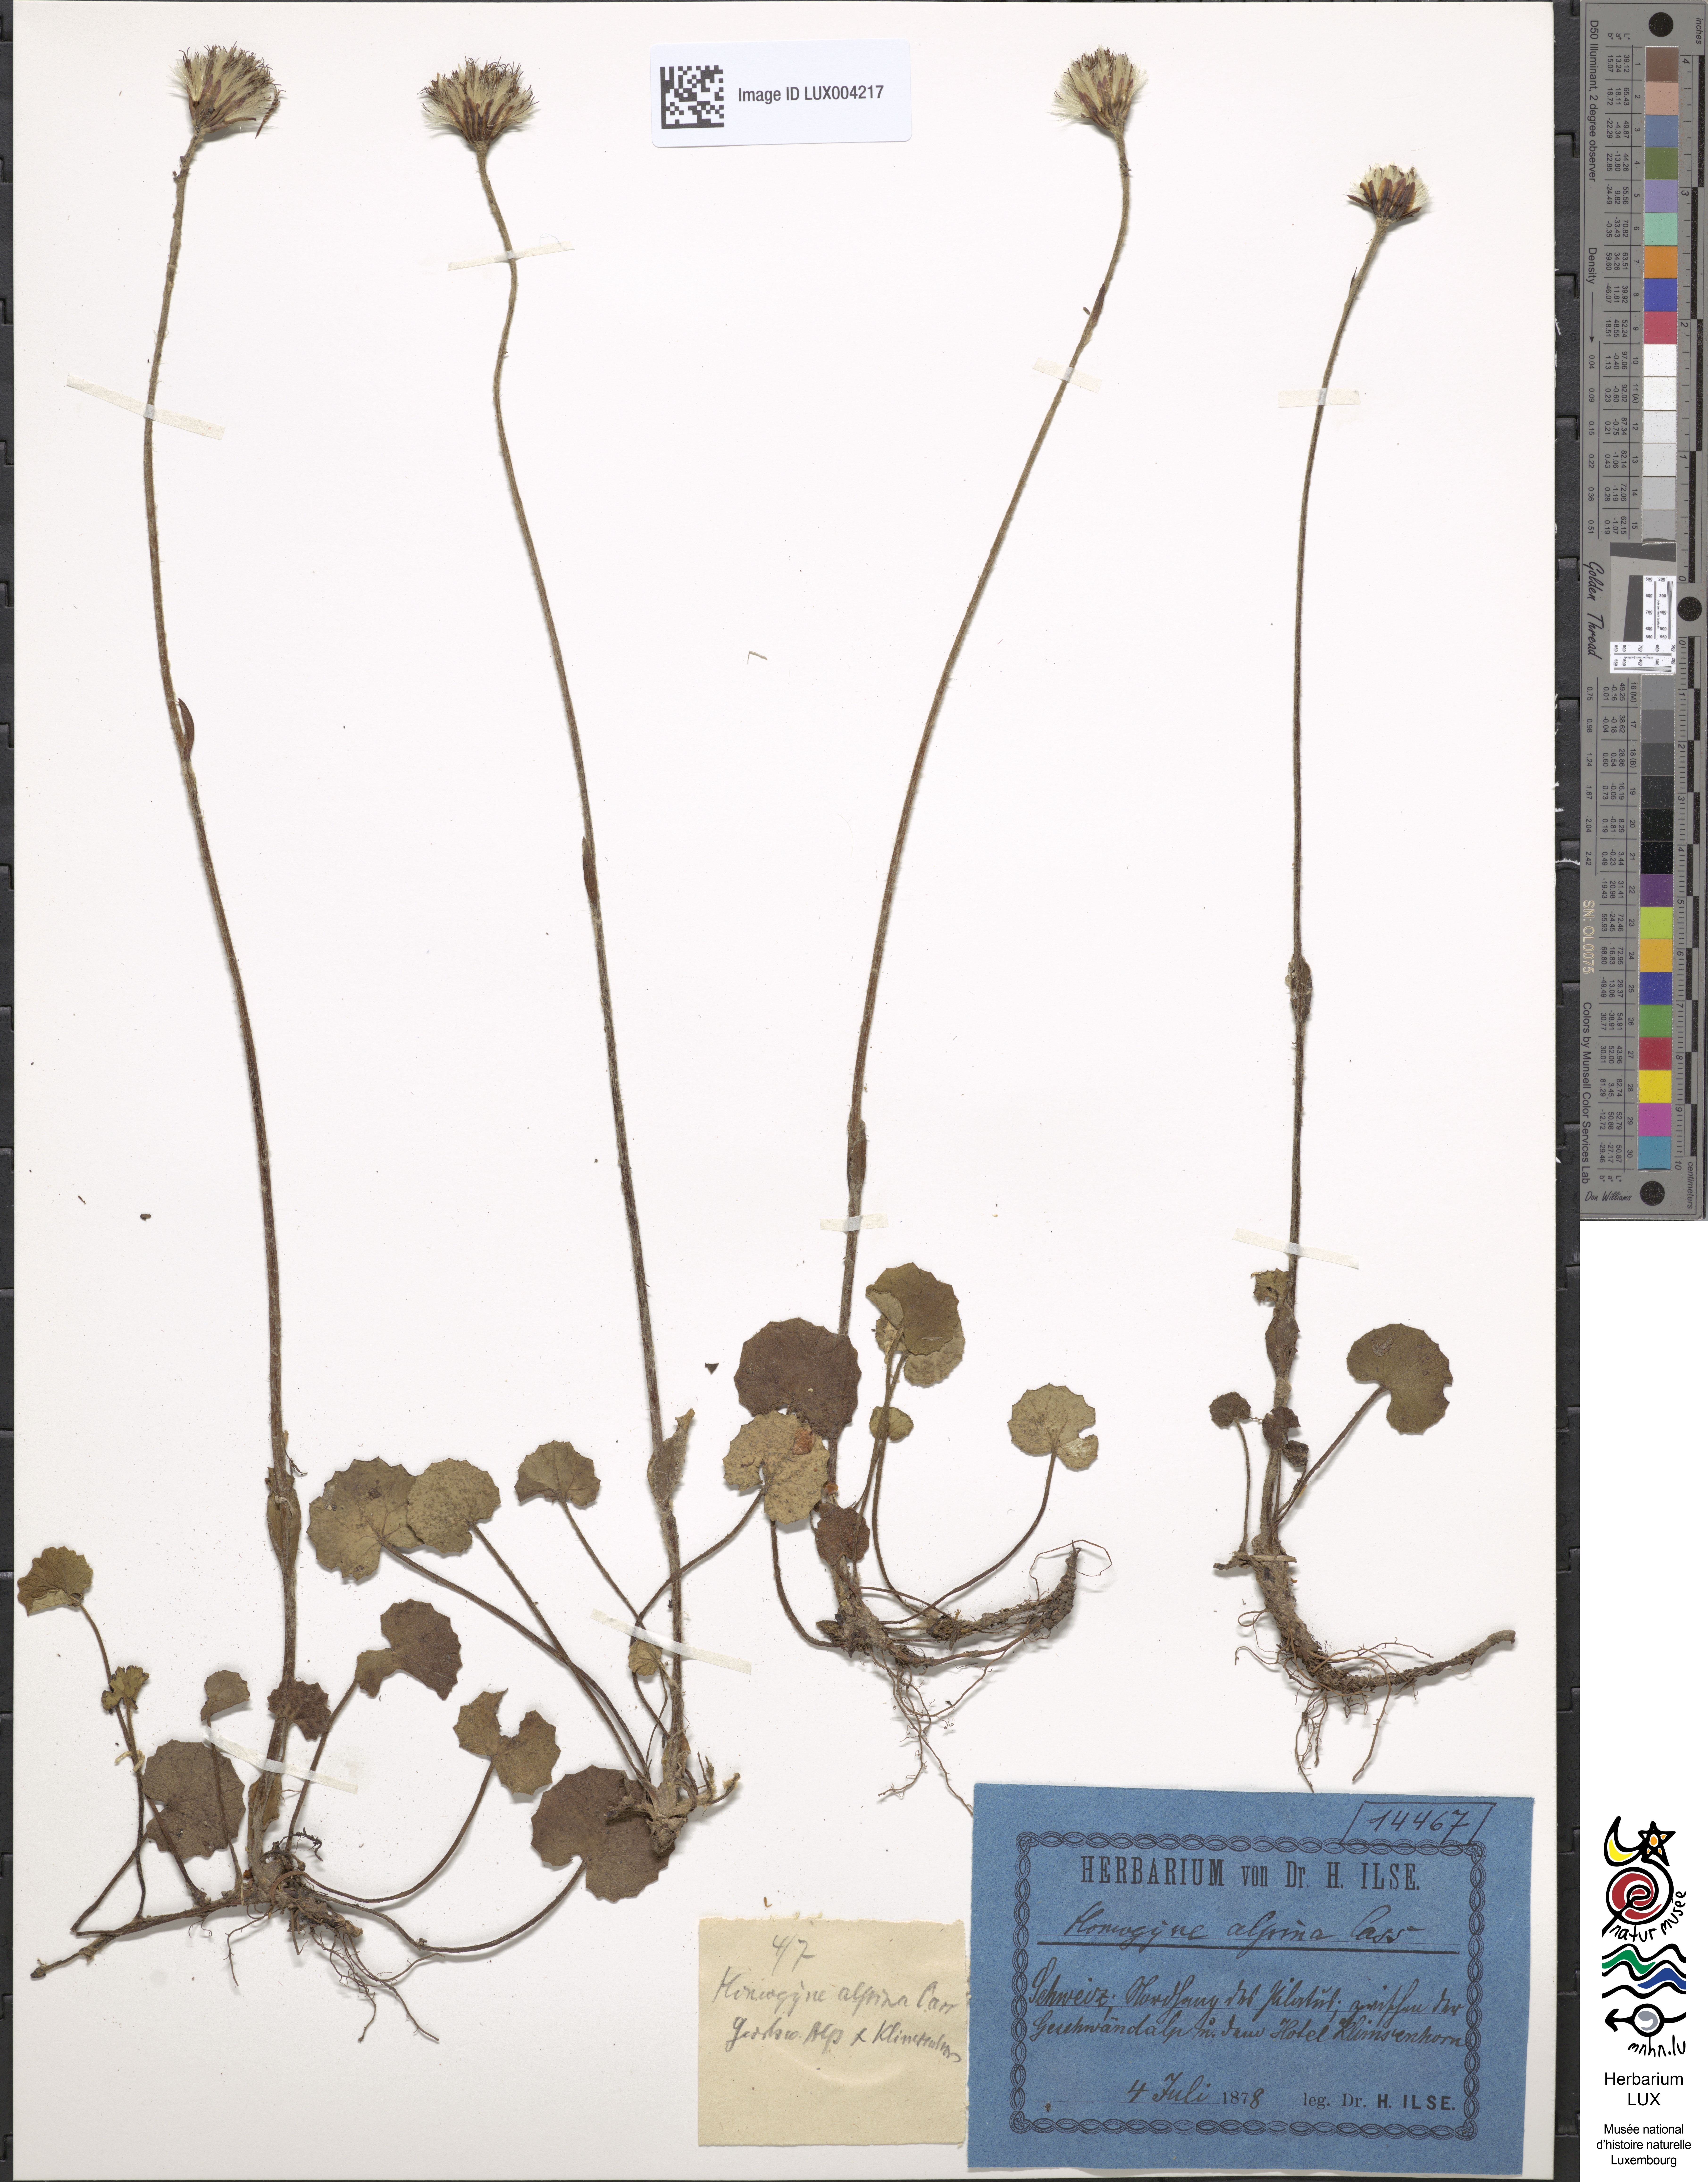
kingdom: Plantae
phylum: Tracheophyta
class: Magnoliopsida
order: Asterales
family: Asteraceae
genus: Homogyne
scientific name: Homogyne alpina
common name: Purple colt's-foot
